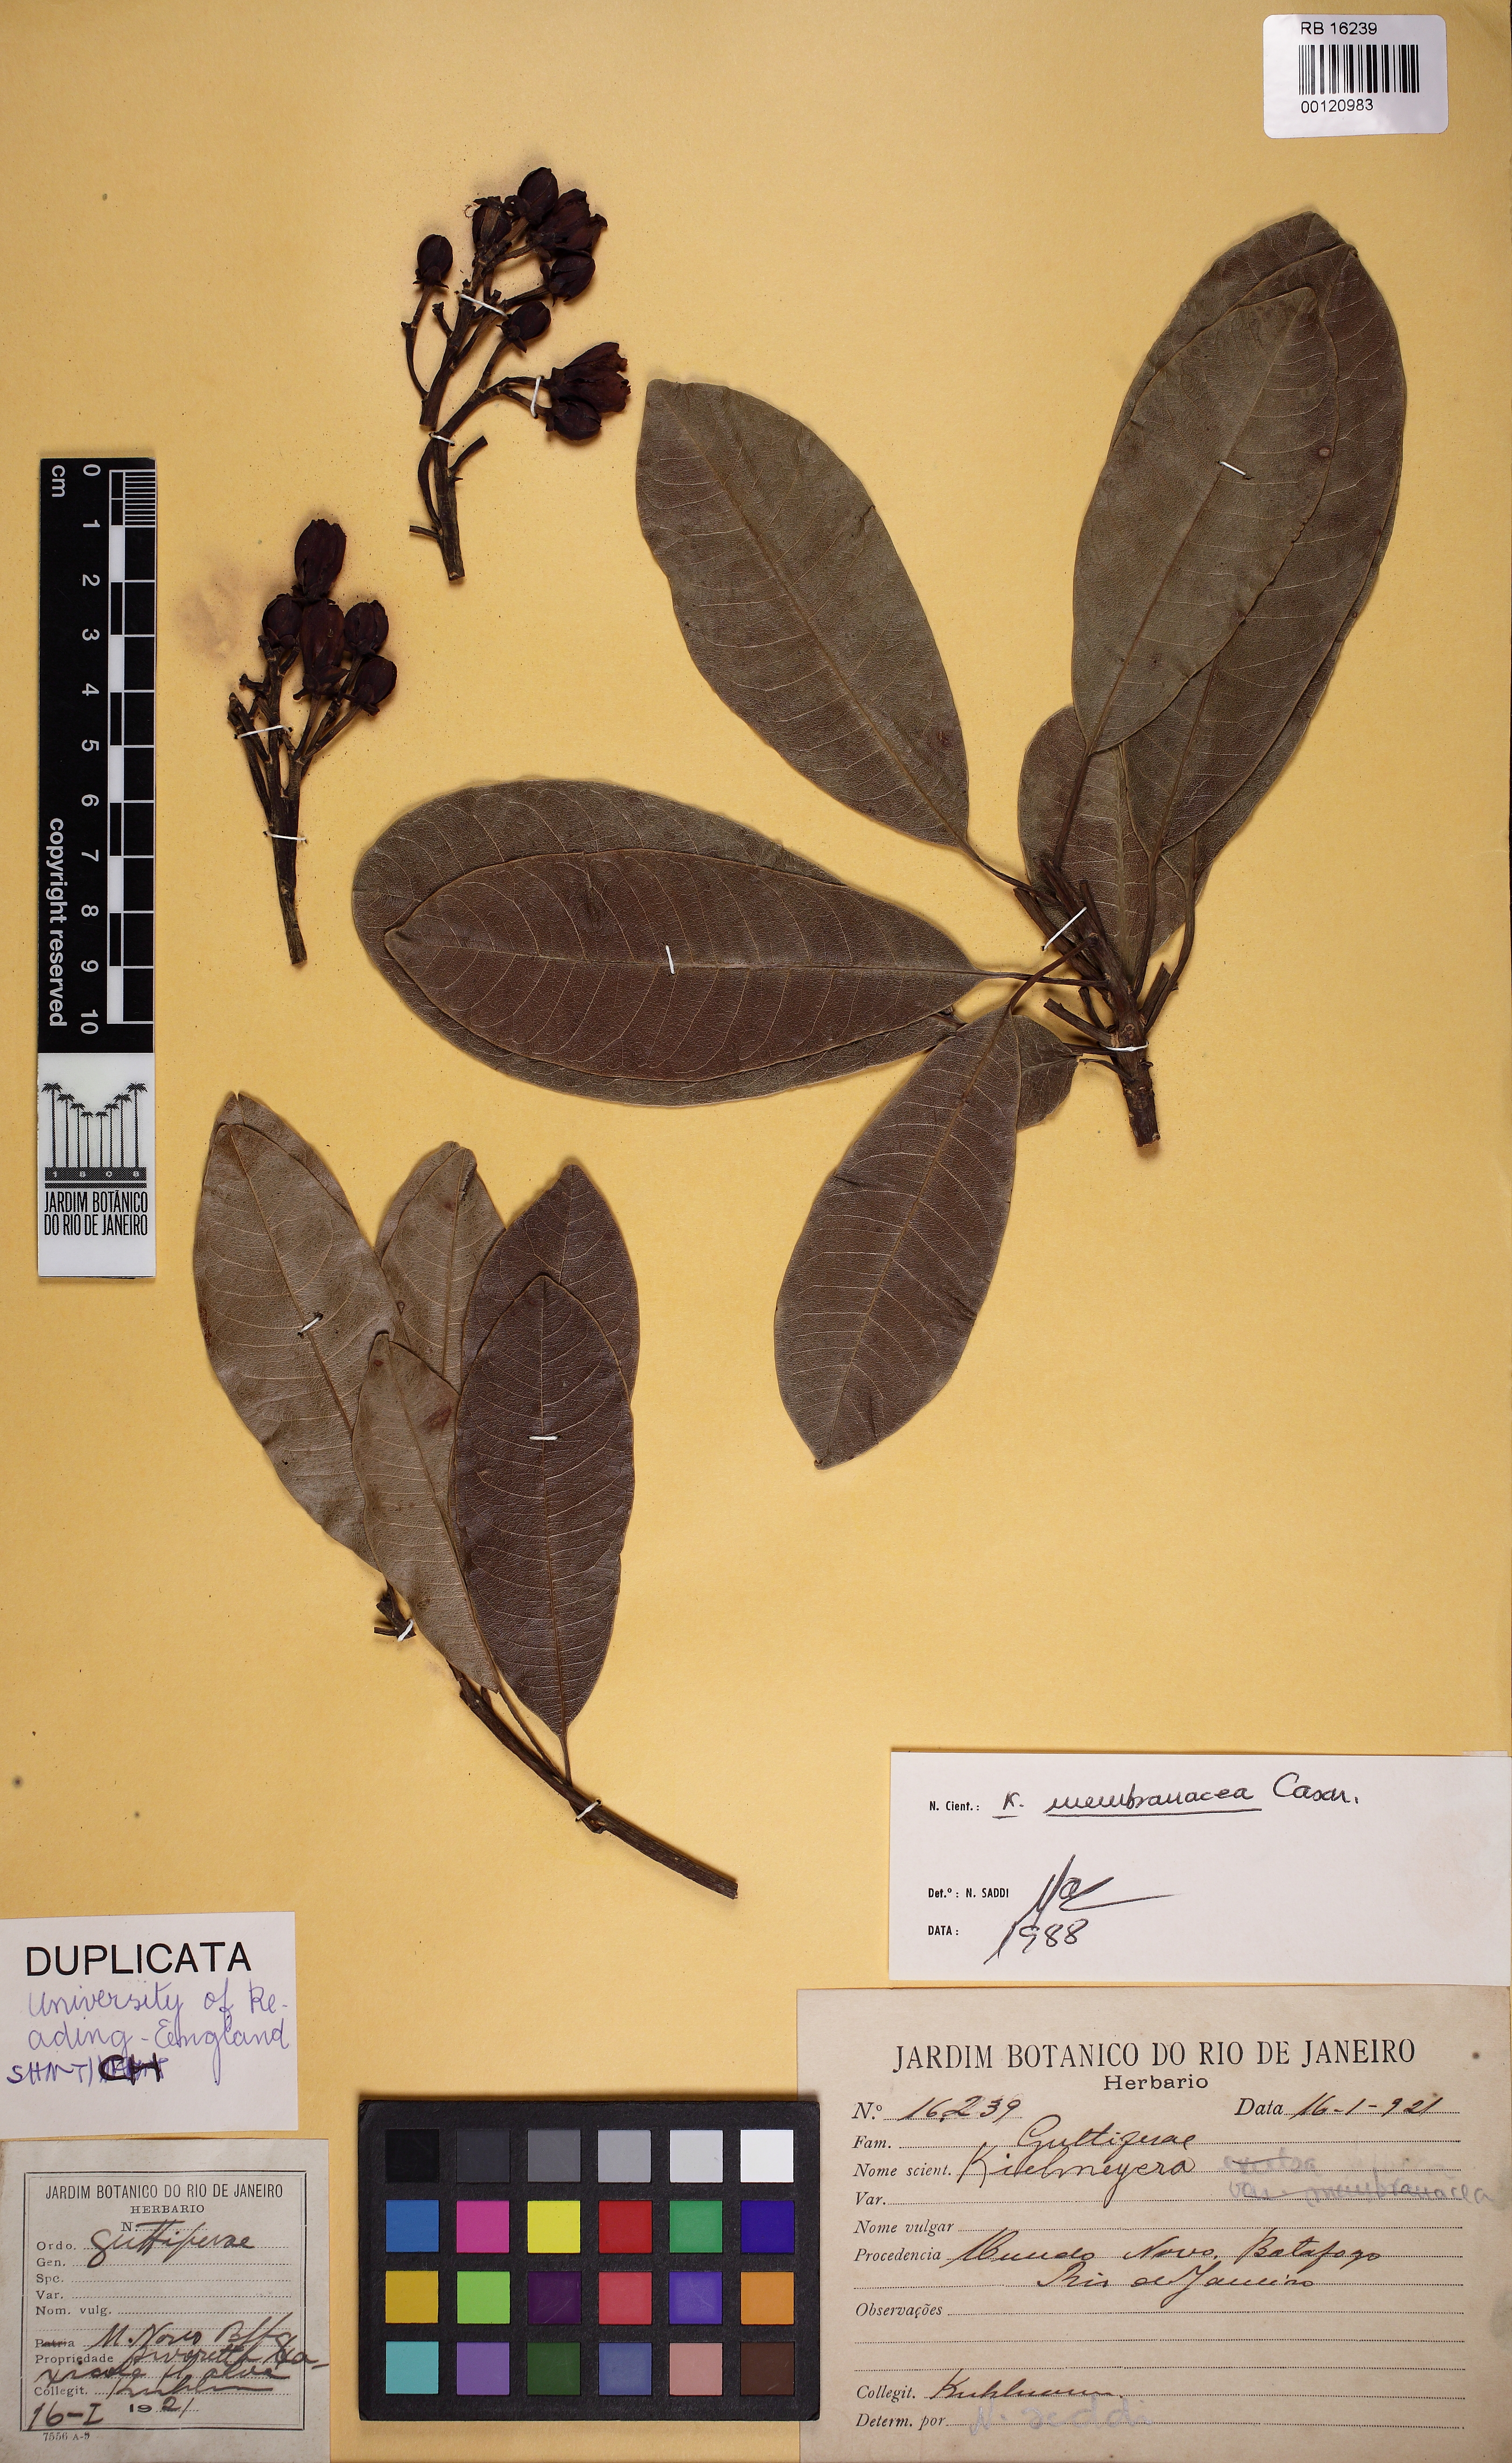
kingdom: Plantae
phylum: Tracheophyta
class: Magnoliopsida
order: Malpighiales
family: Calophyllaceae
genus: Kielmeyera
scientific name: Kielmeyera membranacea
